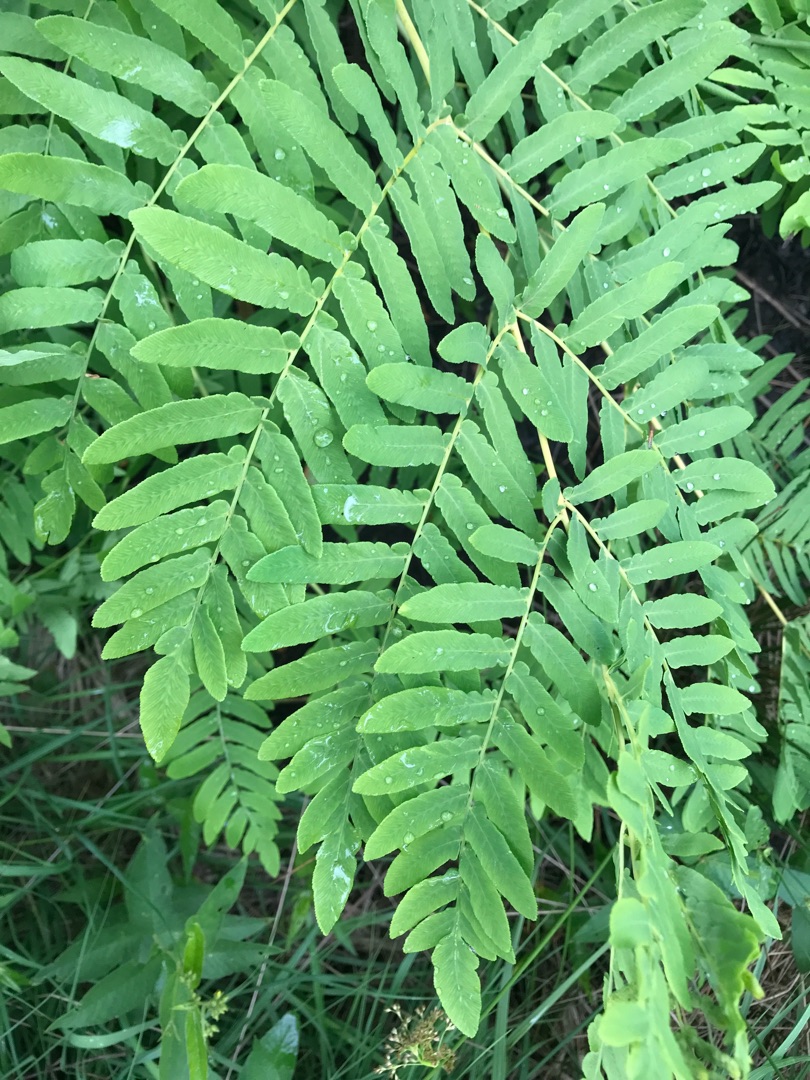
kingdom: Plantae
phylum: Tracheophyta
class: Polypodiopsida
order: Osmundales
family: Osmundaceae
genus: Osmunda
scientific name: Osmunda regalis
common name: Kongebregne
